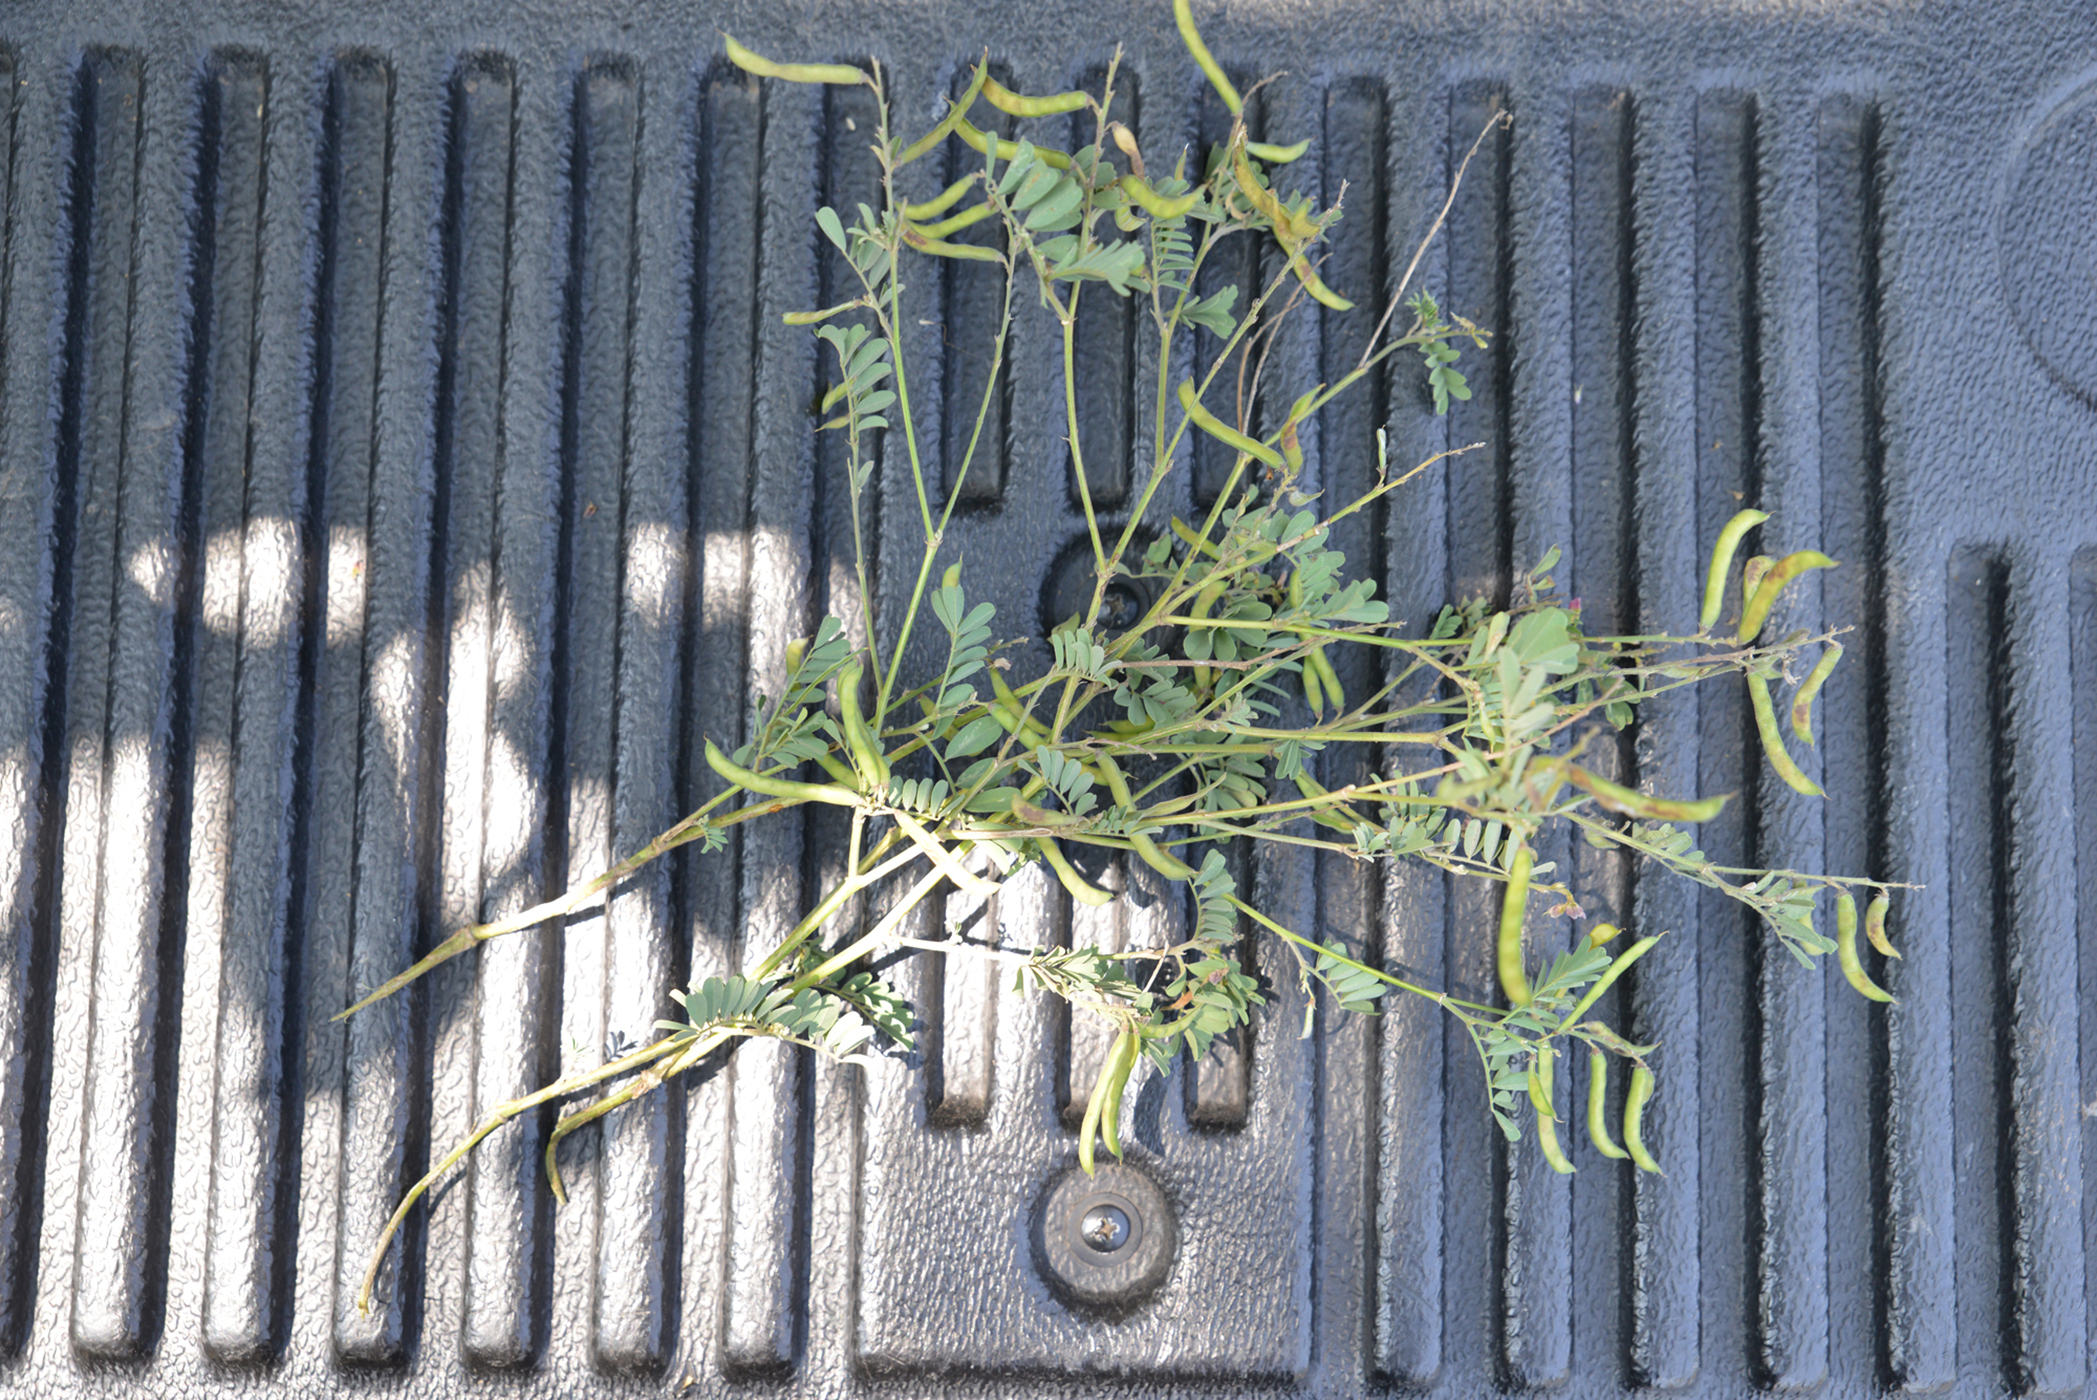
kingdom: Plantae
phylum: Tracheophyta
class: Magnoliopsida
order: Fabales
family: Fabaceae
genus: Tephrosia
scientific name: Tephrosia purpurea
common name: Fishpoison
